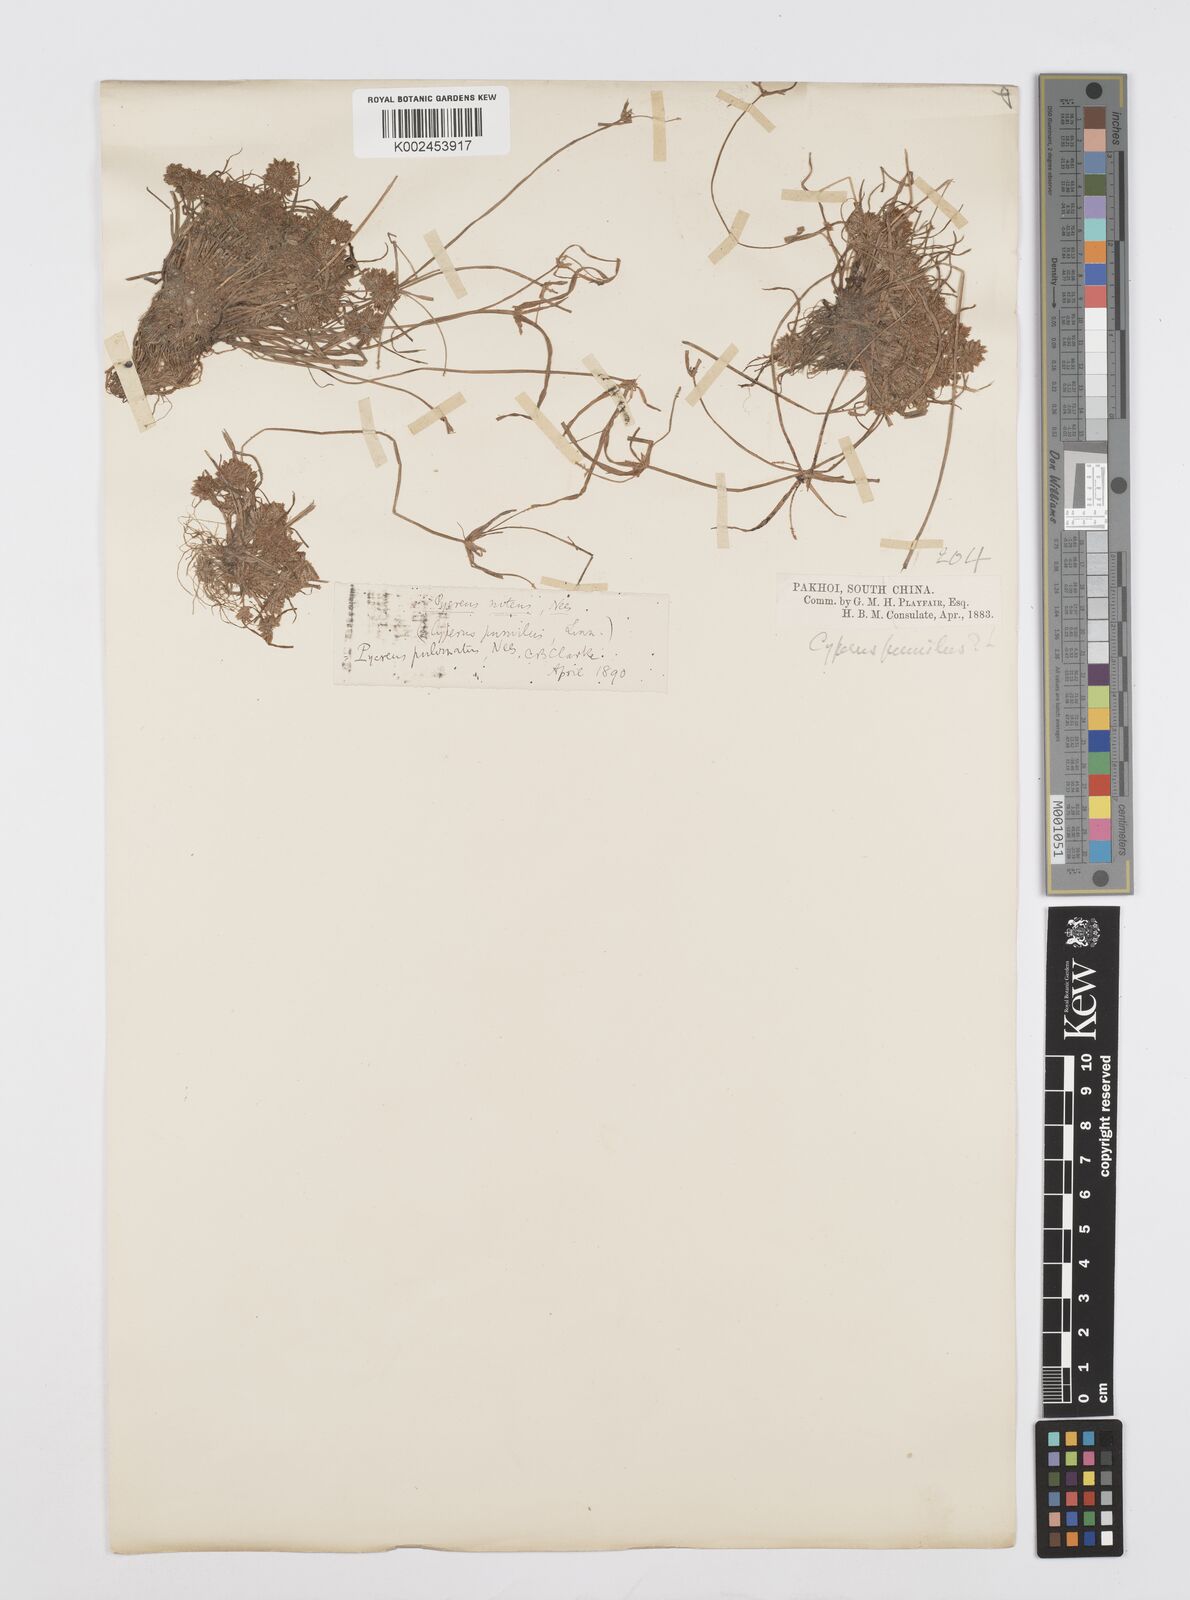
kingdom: Plantae
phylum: Tracheophyta
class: Liliopsida
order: Poales
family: Cyperaceae
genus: Cyperus
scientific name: Cyperus pumilus
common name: Low flatsedge
